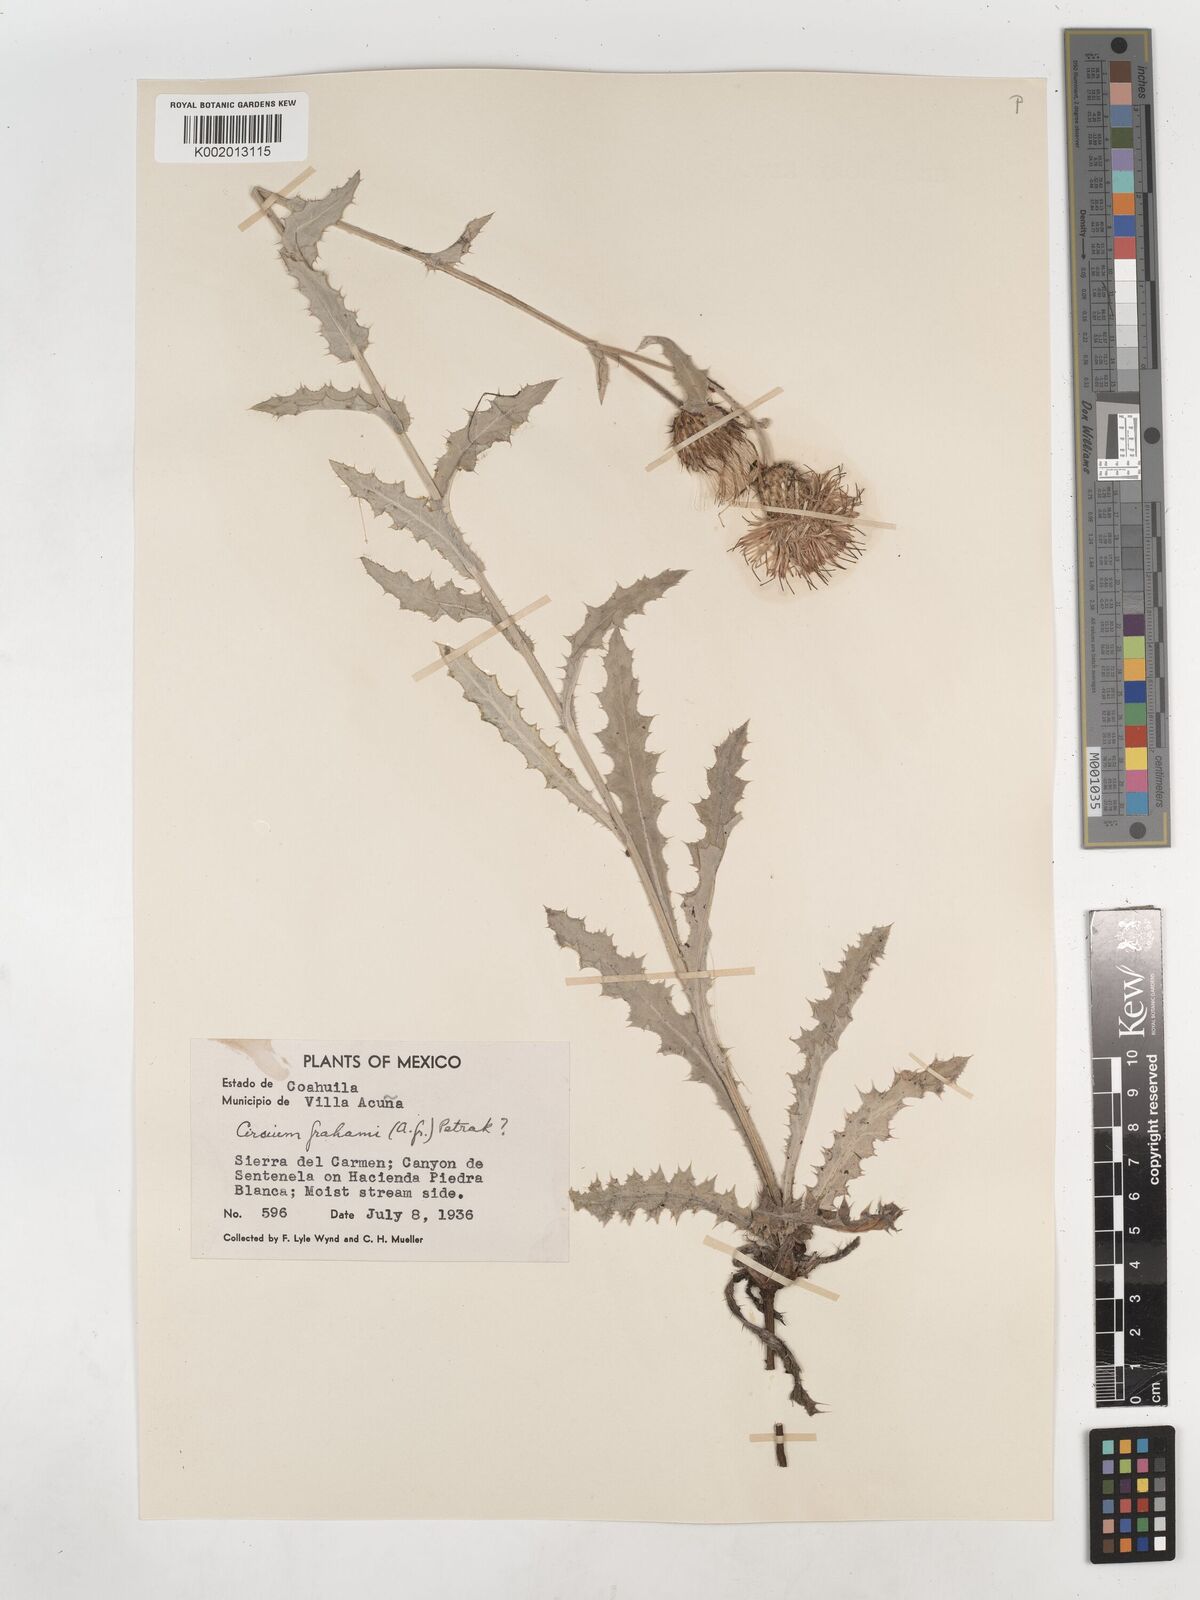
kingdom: Plantae
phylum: Tracheophyta
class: Magnoliopsida
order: Asterales
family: Asteraceae
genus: Cirsium
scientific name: Cirsium
